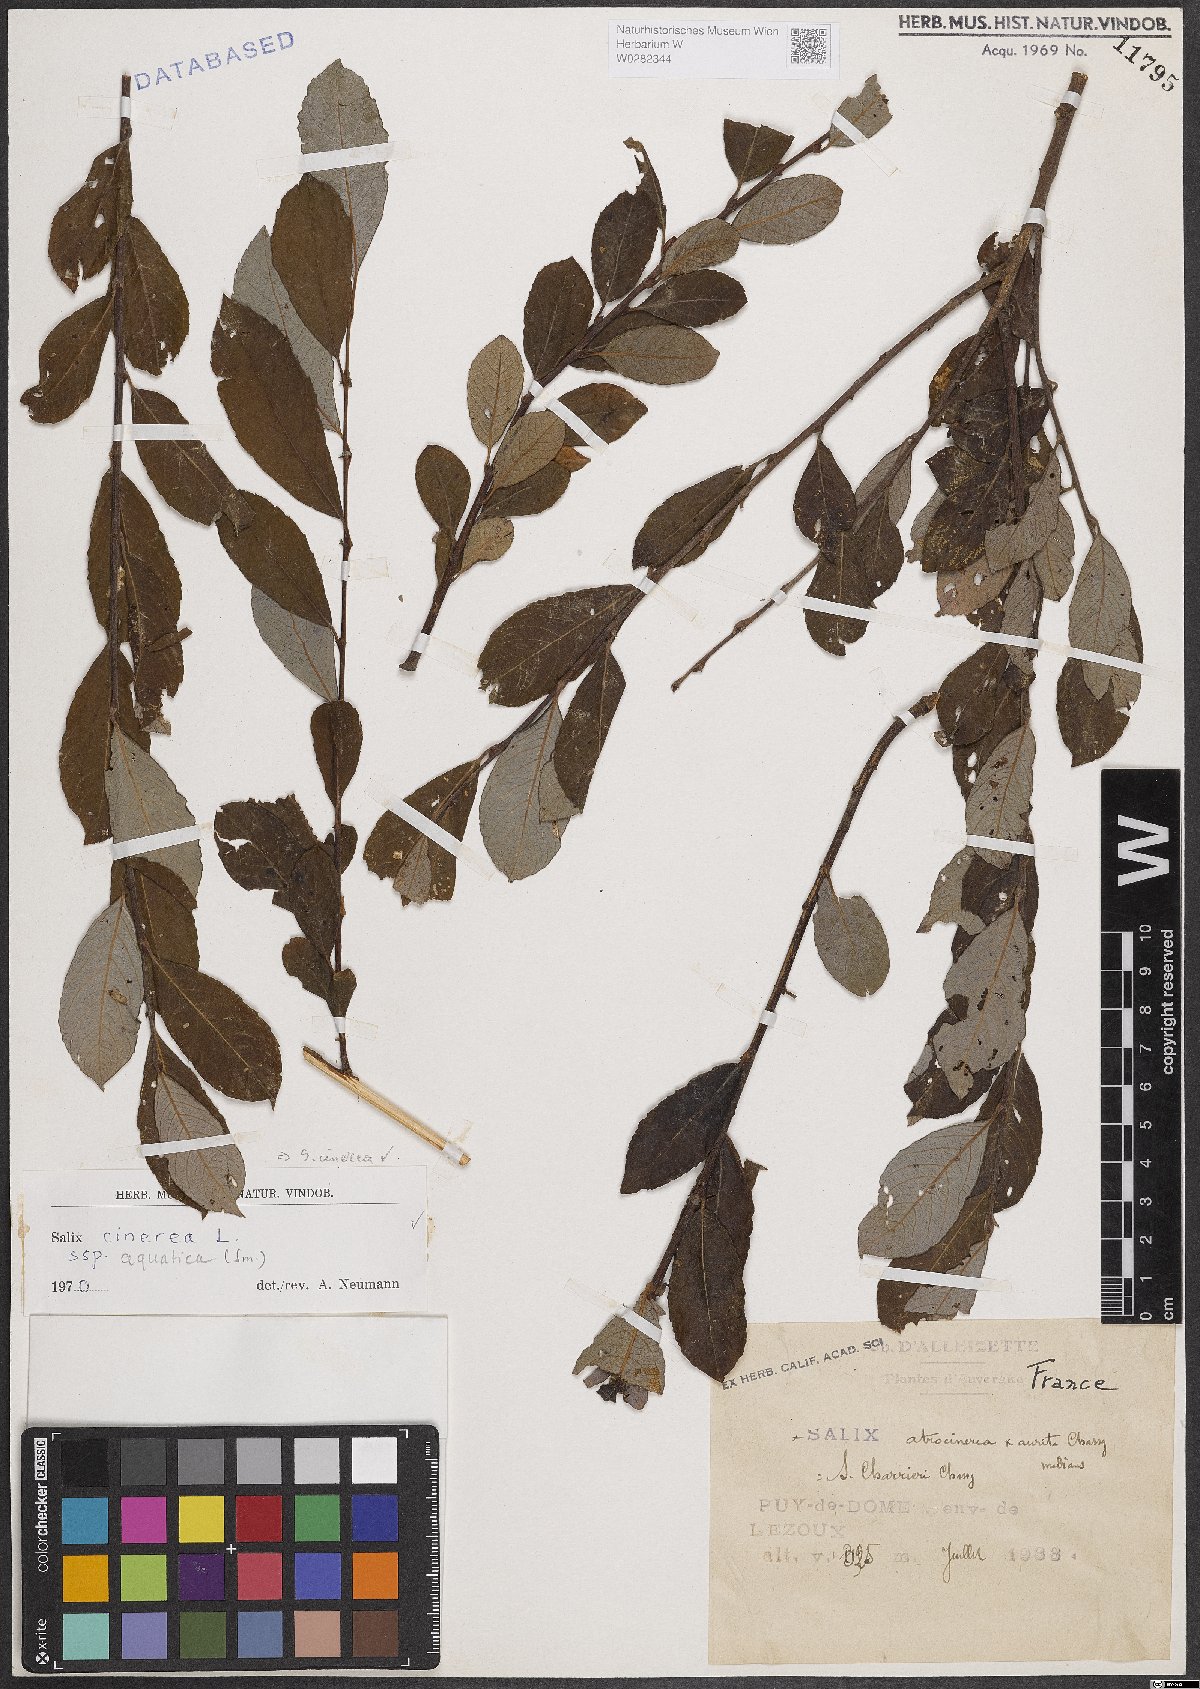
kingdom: Plantae
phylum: Tracheophyta
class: Magnoliopsida
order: Malpighiales
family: Salicaceae
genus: Salix
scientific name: Salix cinerea
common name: Common sallow
